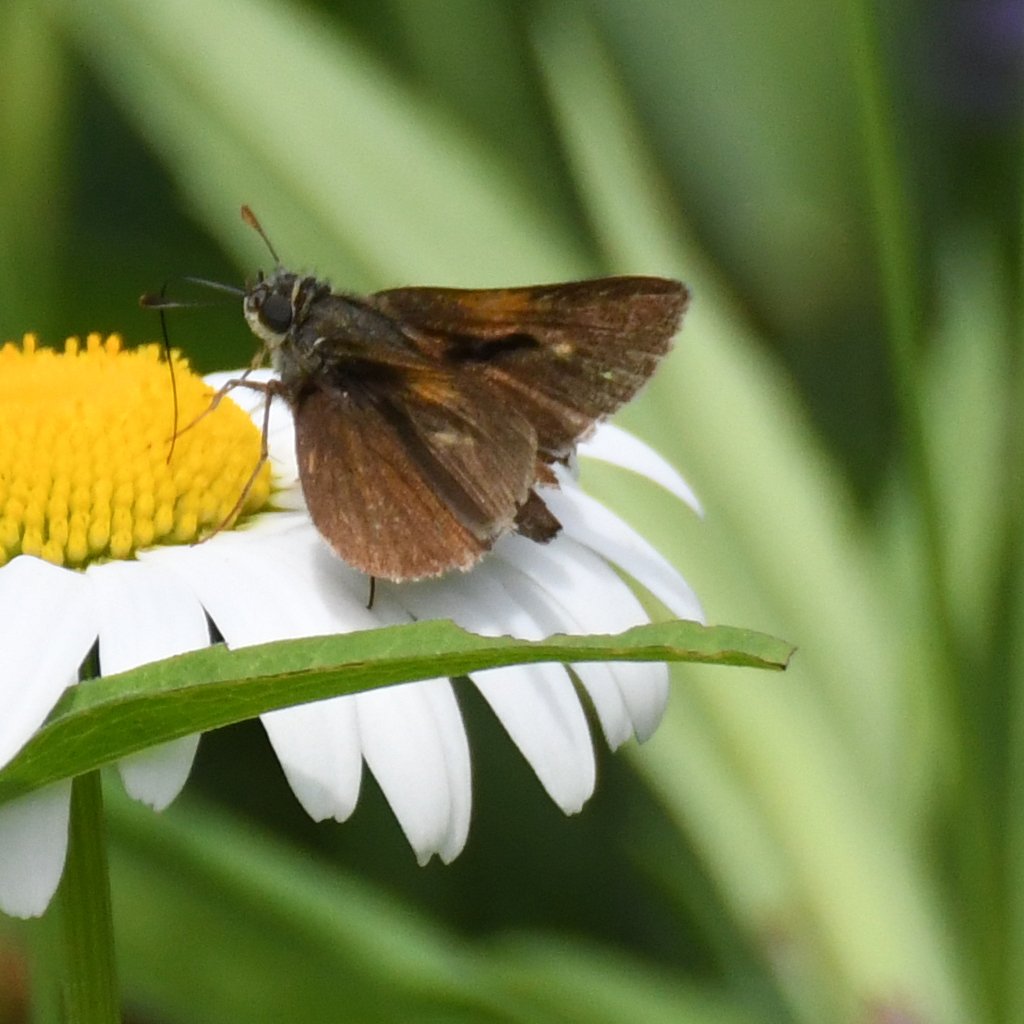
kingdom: Animalia
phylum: Arthropoda
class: Insecta
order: Lepidoptera
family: Hesperiidae
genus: Polites
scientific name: Polites themistocles
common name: Tawny-edged Skipper
